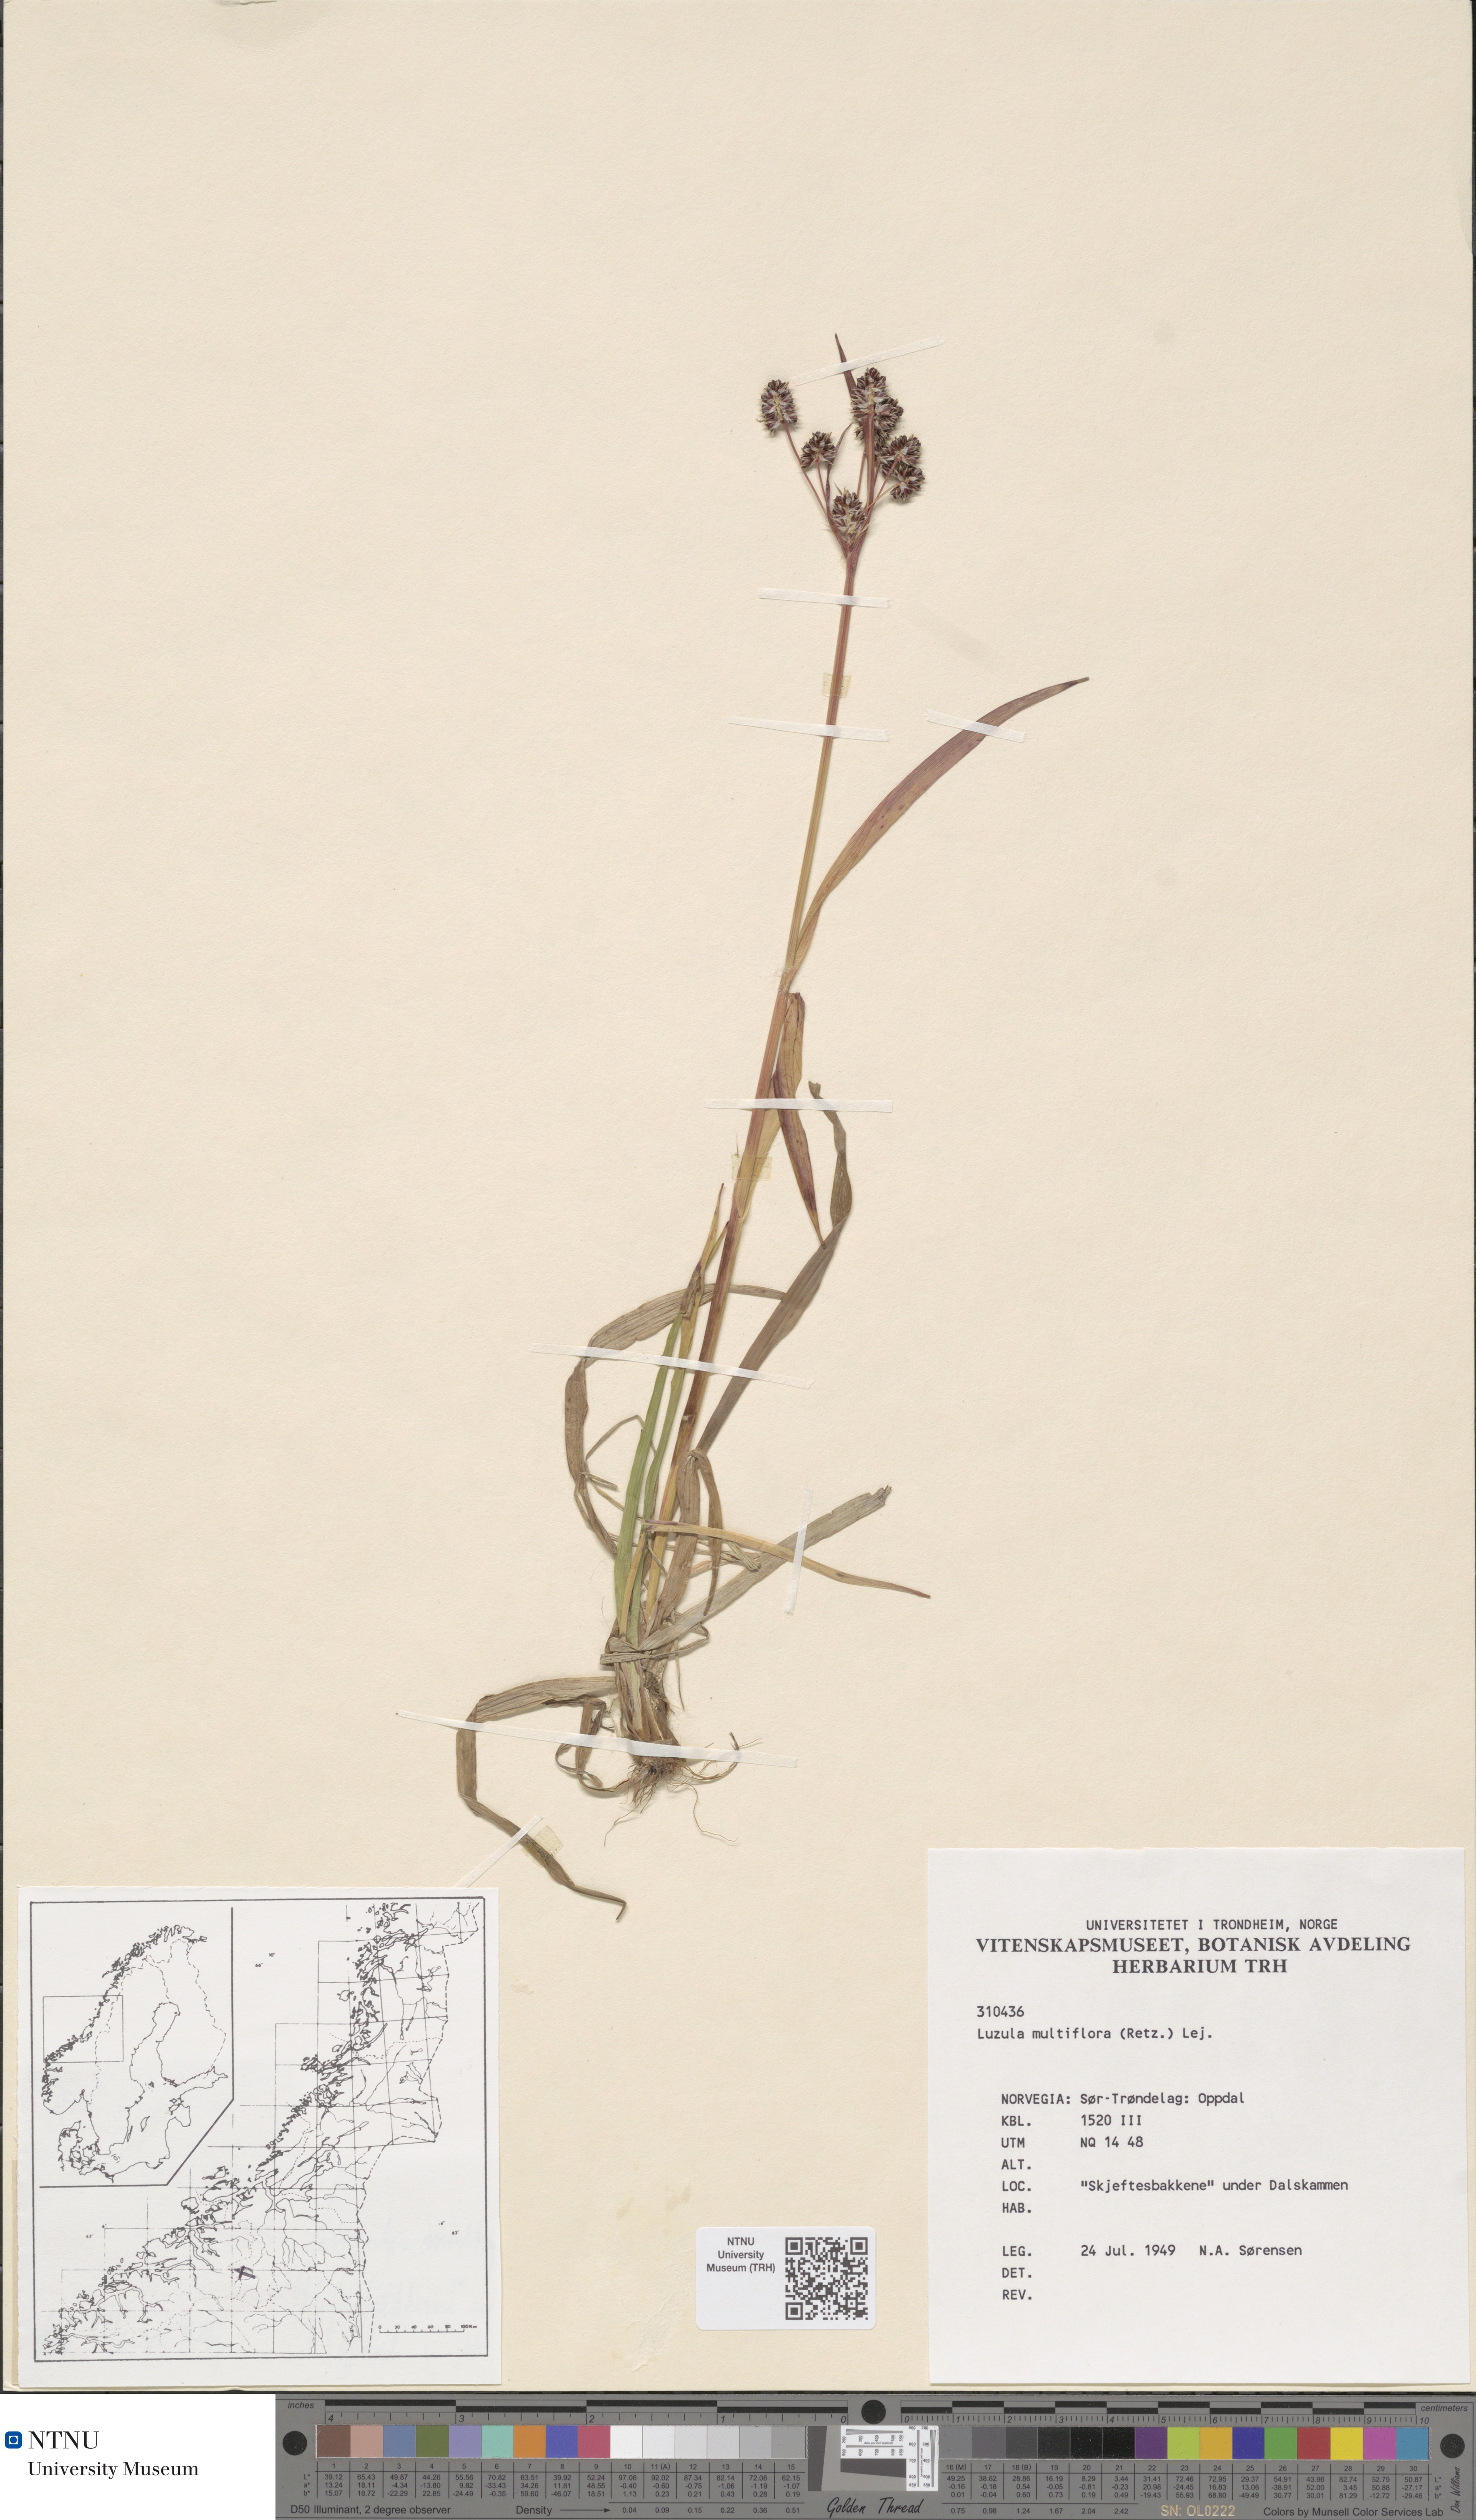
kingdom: Plantae
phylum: Tracheophyta
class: Liliopsida
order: Poales
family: Juncaceae
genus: Luzula
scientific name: Luzula multiflora
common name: Heath wood-rush
